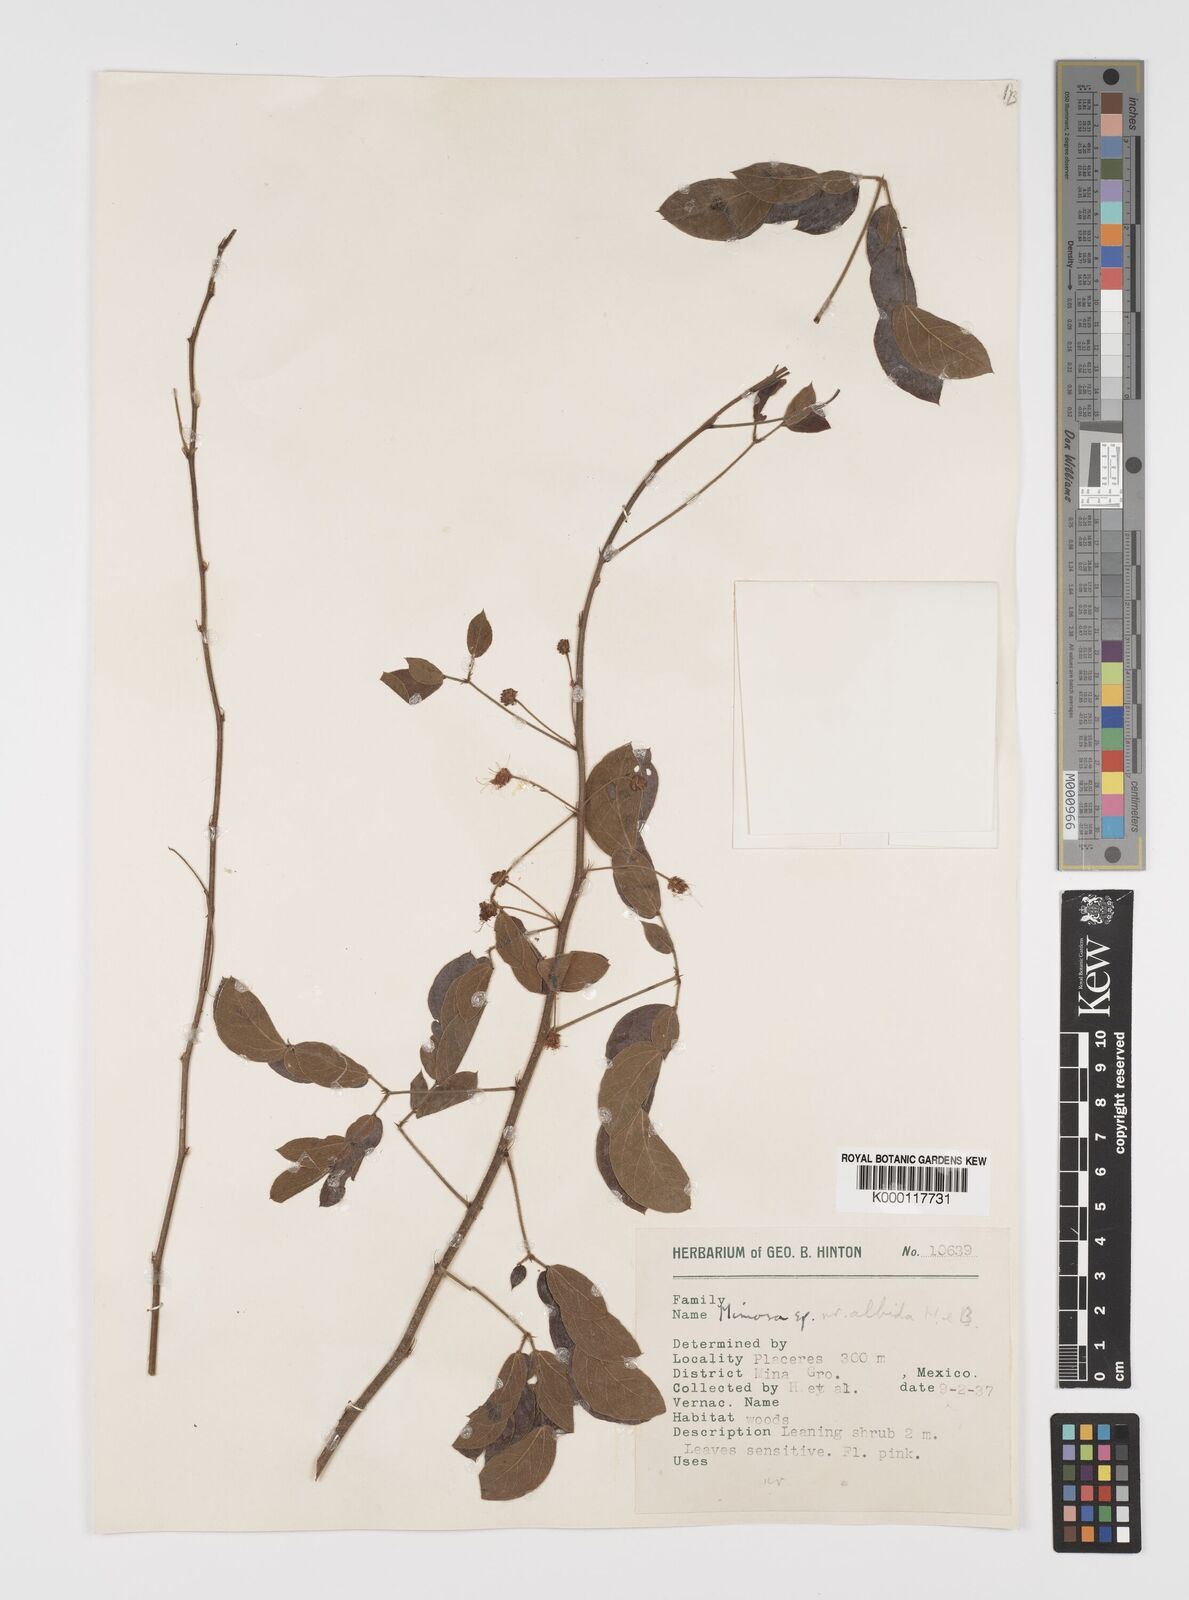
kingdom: Plantae
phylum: Tracheophyta
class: Magnoliopsida
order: Fabales
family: Fabaceae
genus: Mimosa
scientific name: Mimosa albida
